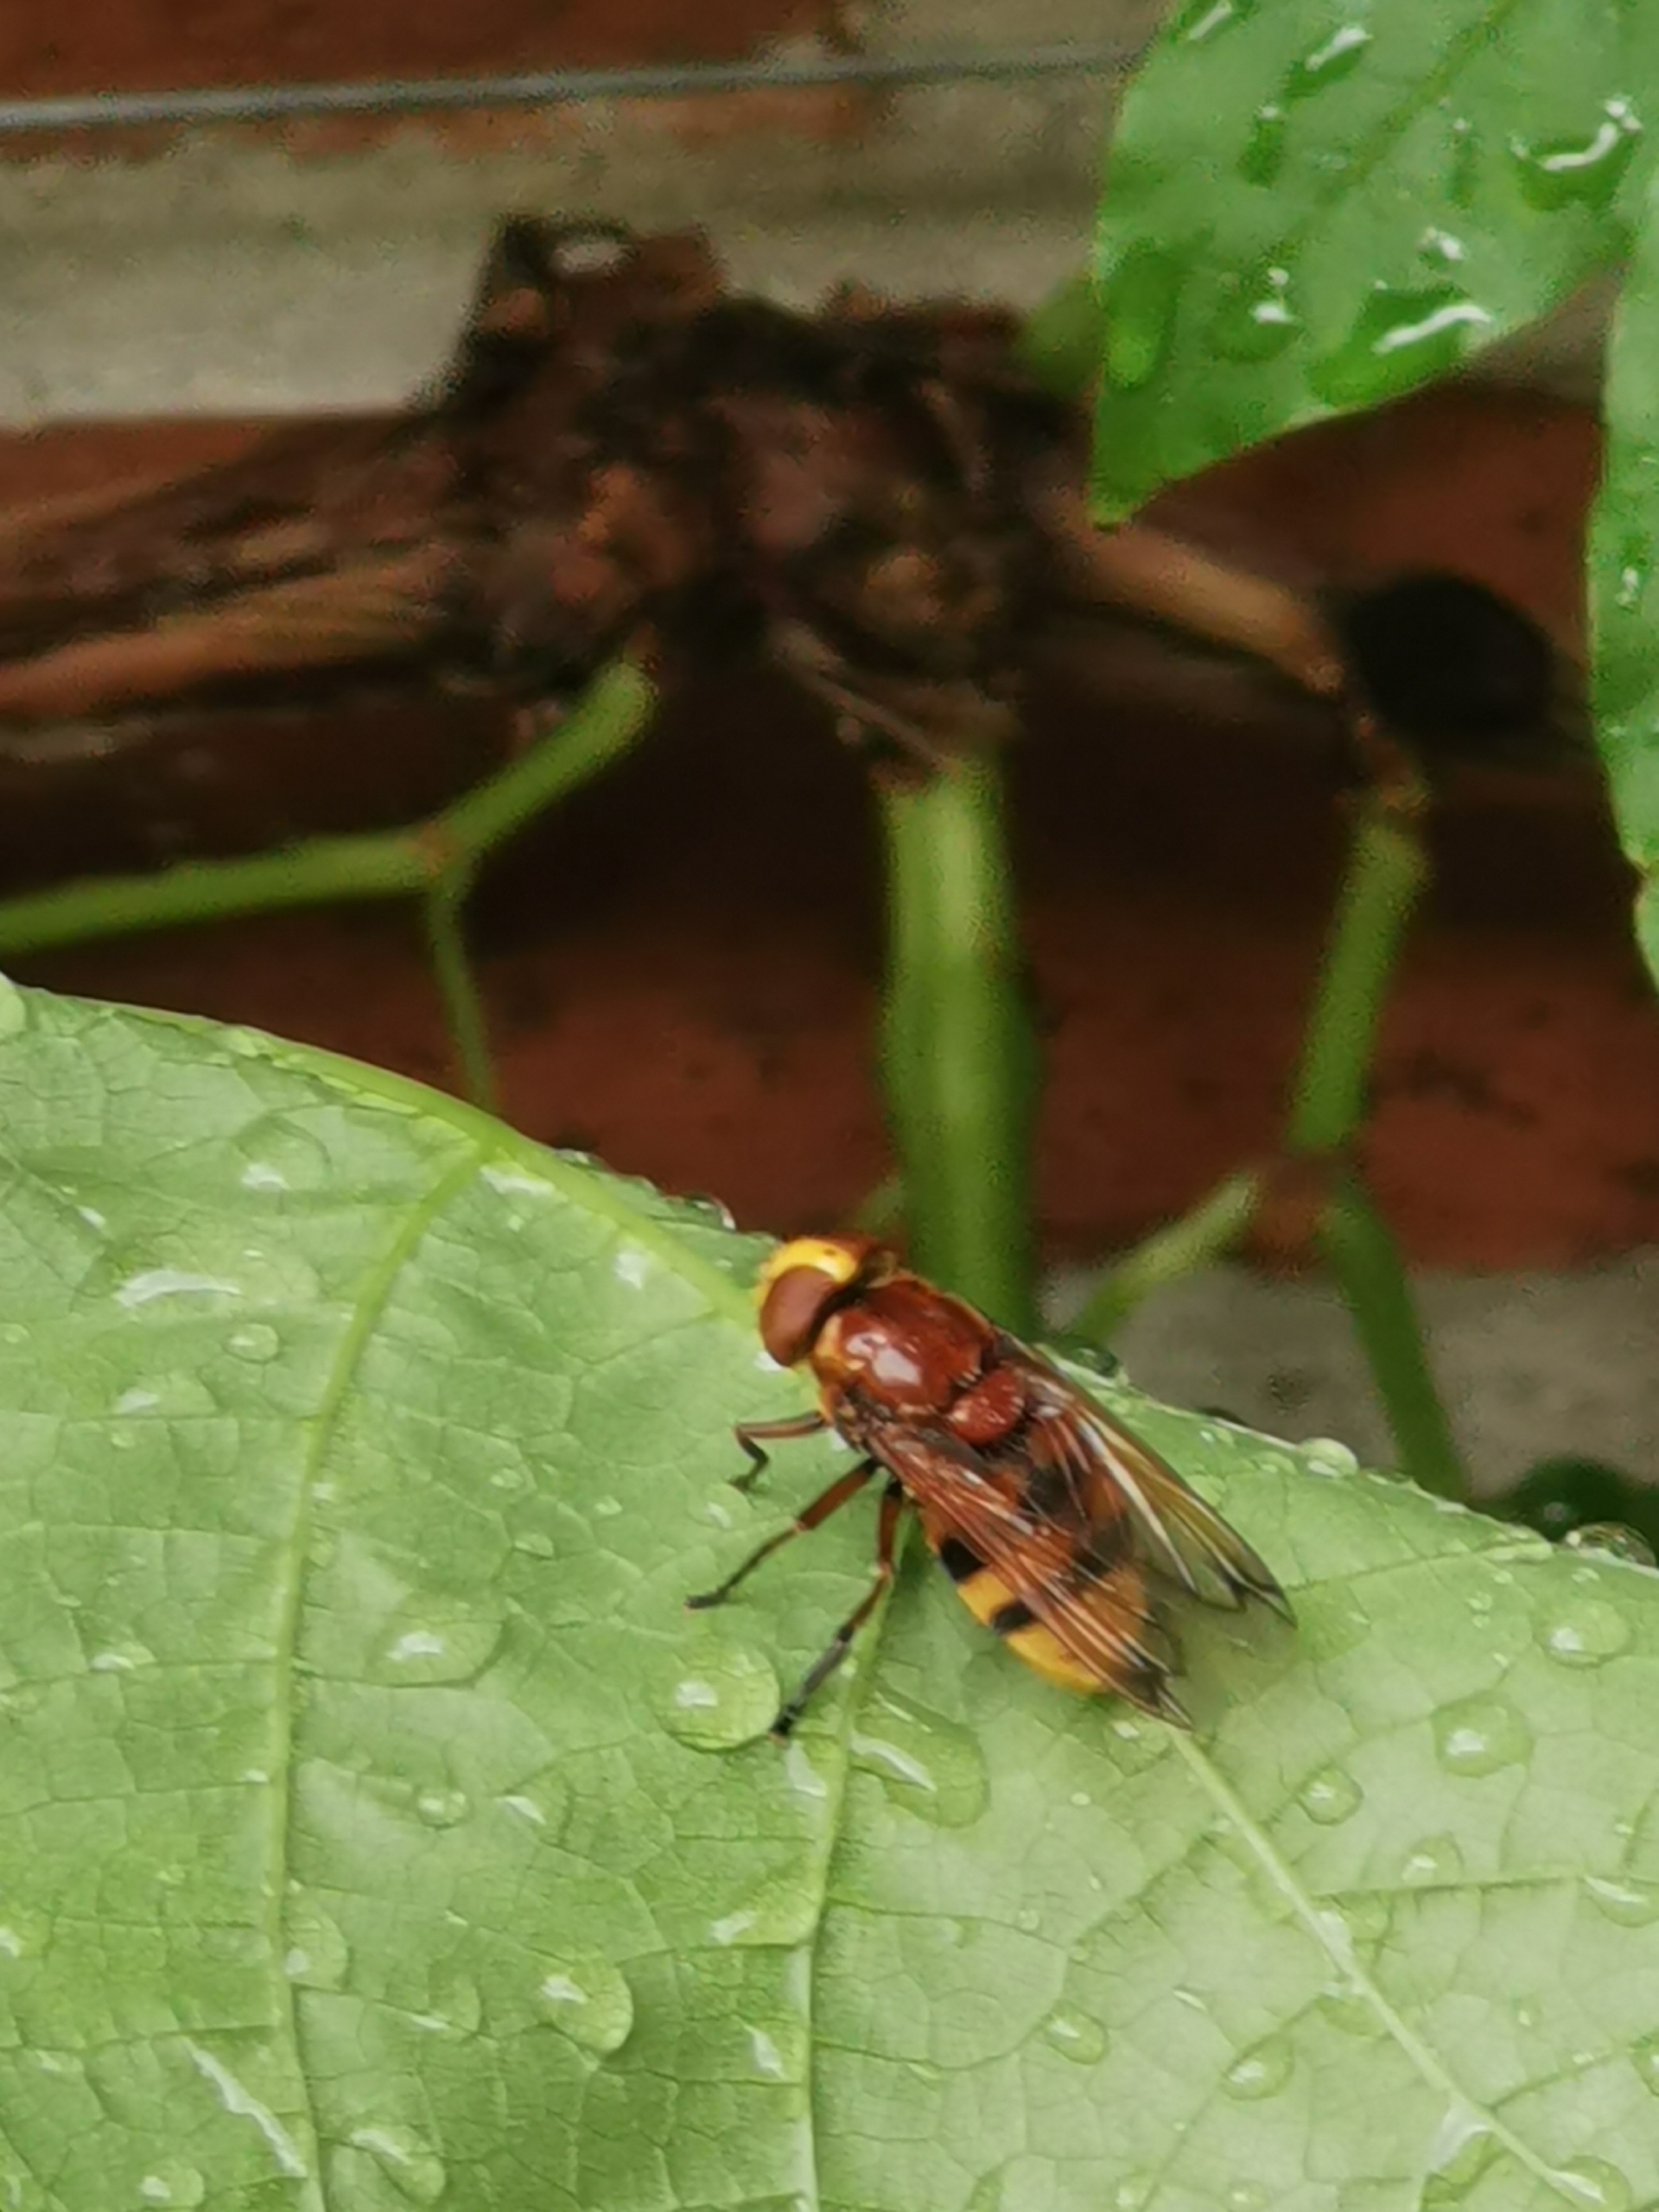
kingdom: Animalia
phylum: Arthropoda
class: Insecta
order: Diptera
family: Syrphidae
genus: Volucella
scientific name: Volucella zonaria
